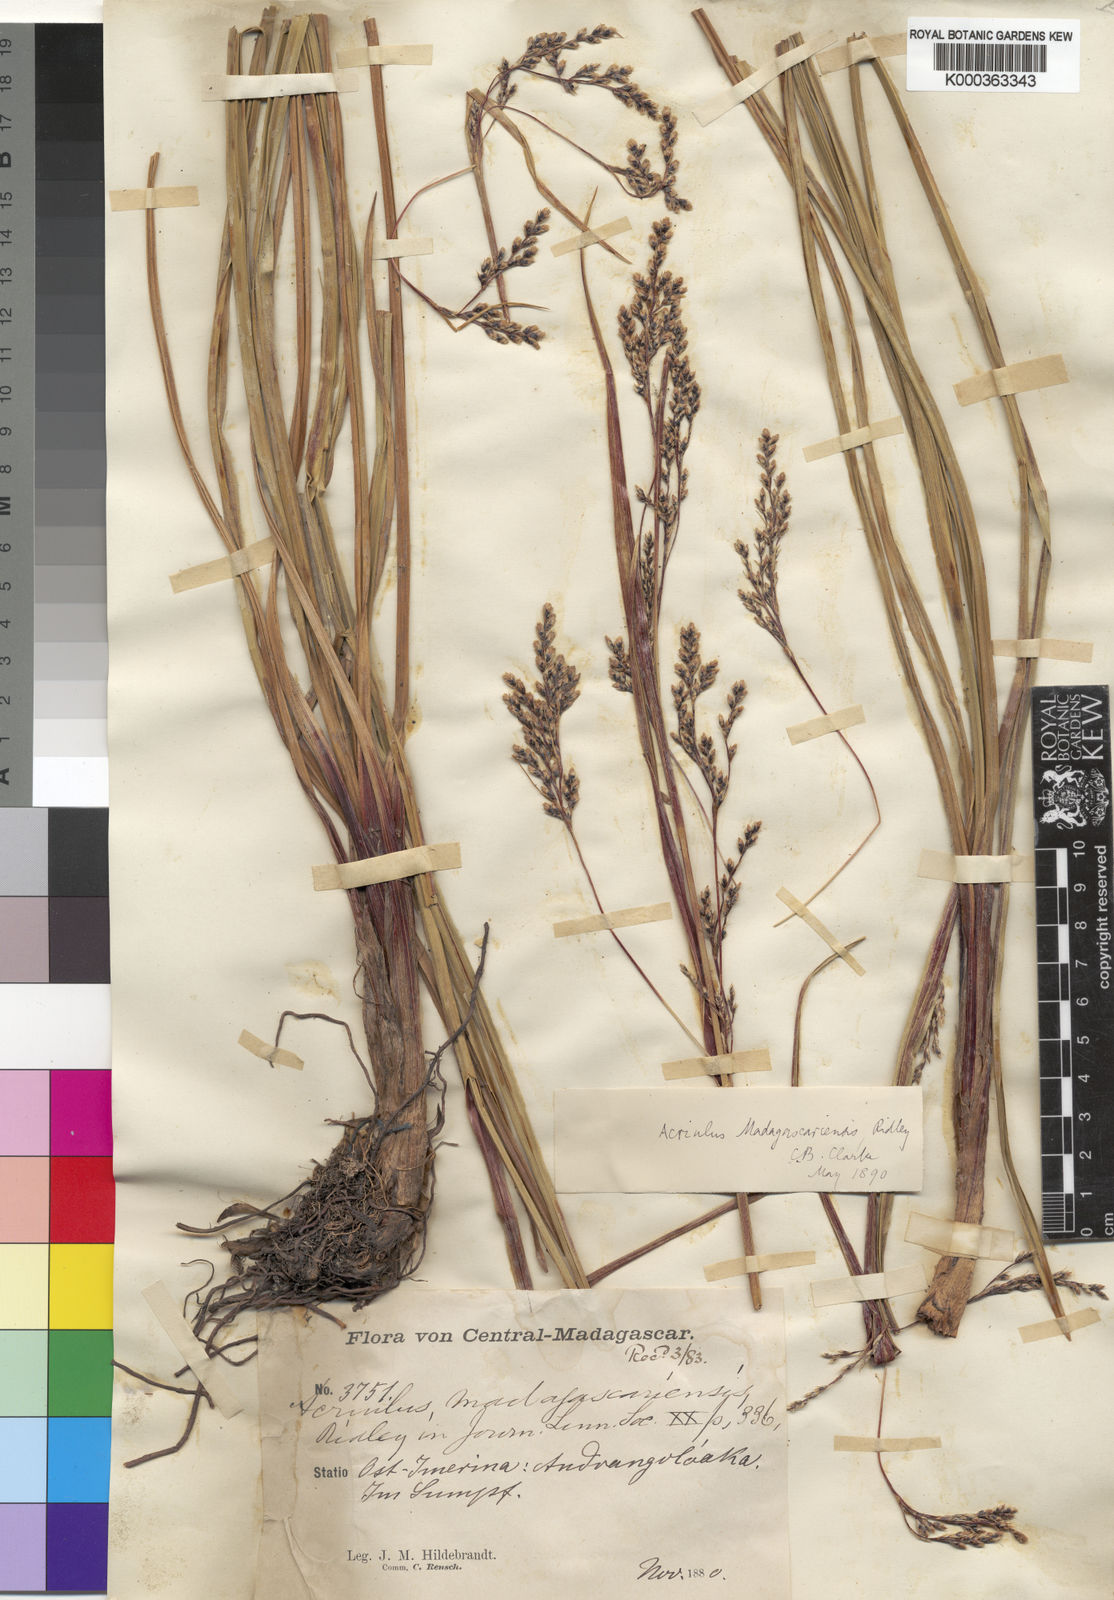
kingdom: Plantae
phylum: Tracheophyta
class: Liliopsida
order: Poales
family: Cyperaceae
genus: Scleria
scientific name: Scleria
